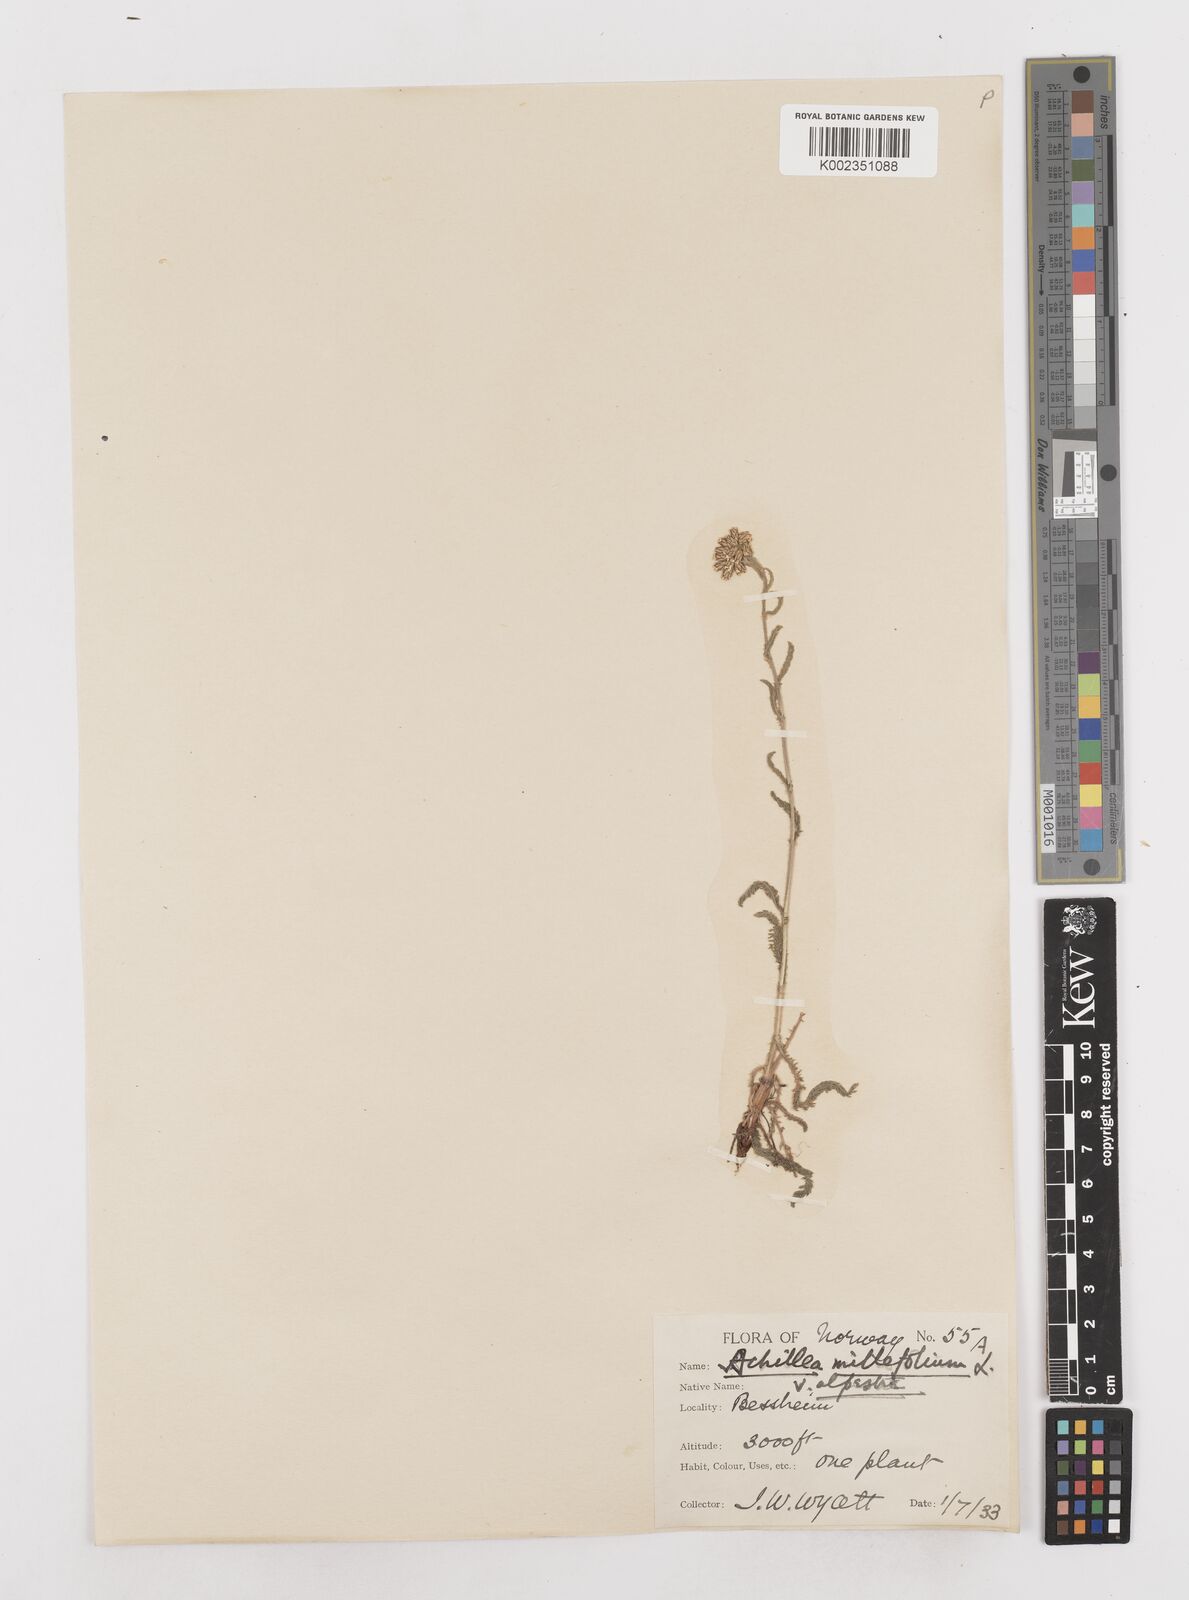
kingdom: Plantae
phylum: Tracheophyta
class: Magnoliopsida
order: Asterales
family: Asteraceae
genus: Achillea
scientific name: Achillea millefolium
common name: Yarrow
